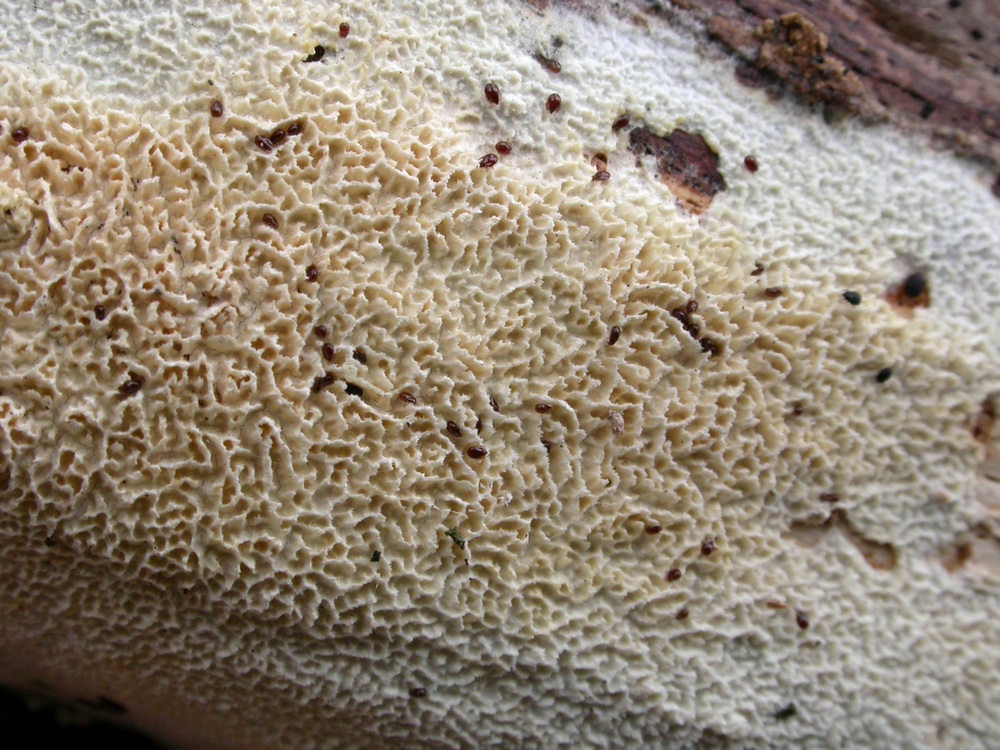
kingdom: Fungi
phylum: Basidiomycota
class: Agaricomycetes
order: Hymenochaetales
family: Schizoporaceae
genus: Schizopora
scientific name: Schizopora paradoxa
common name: hvid tandsvamp
